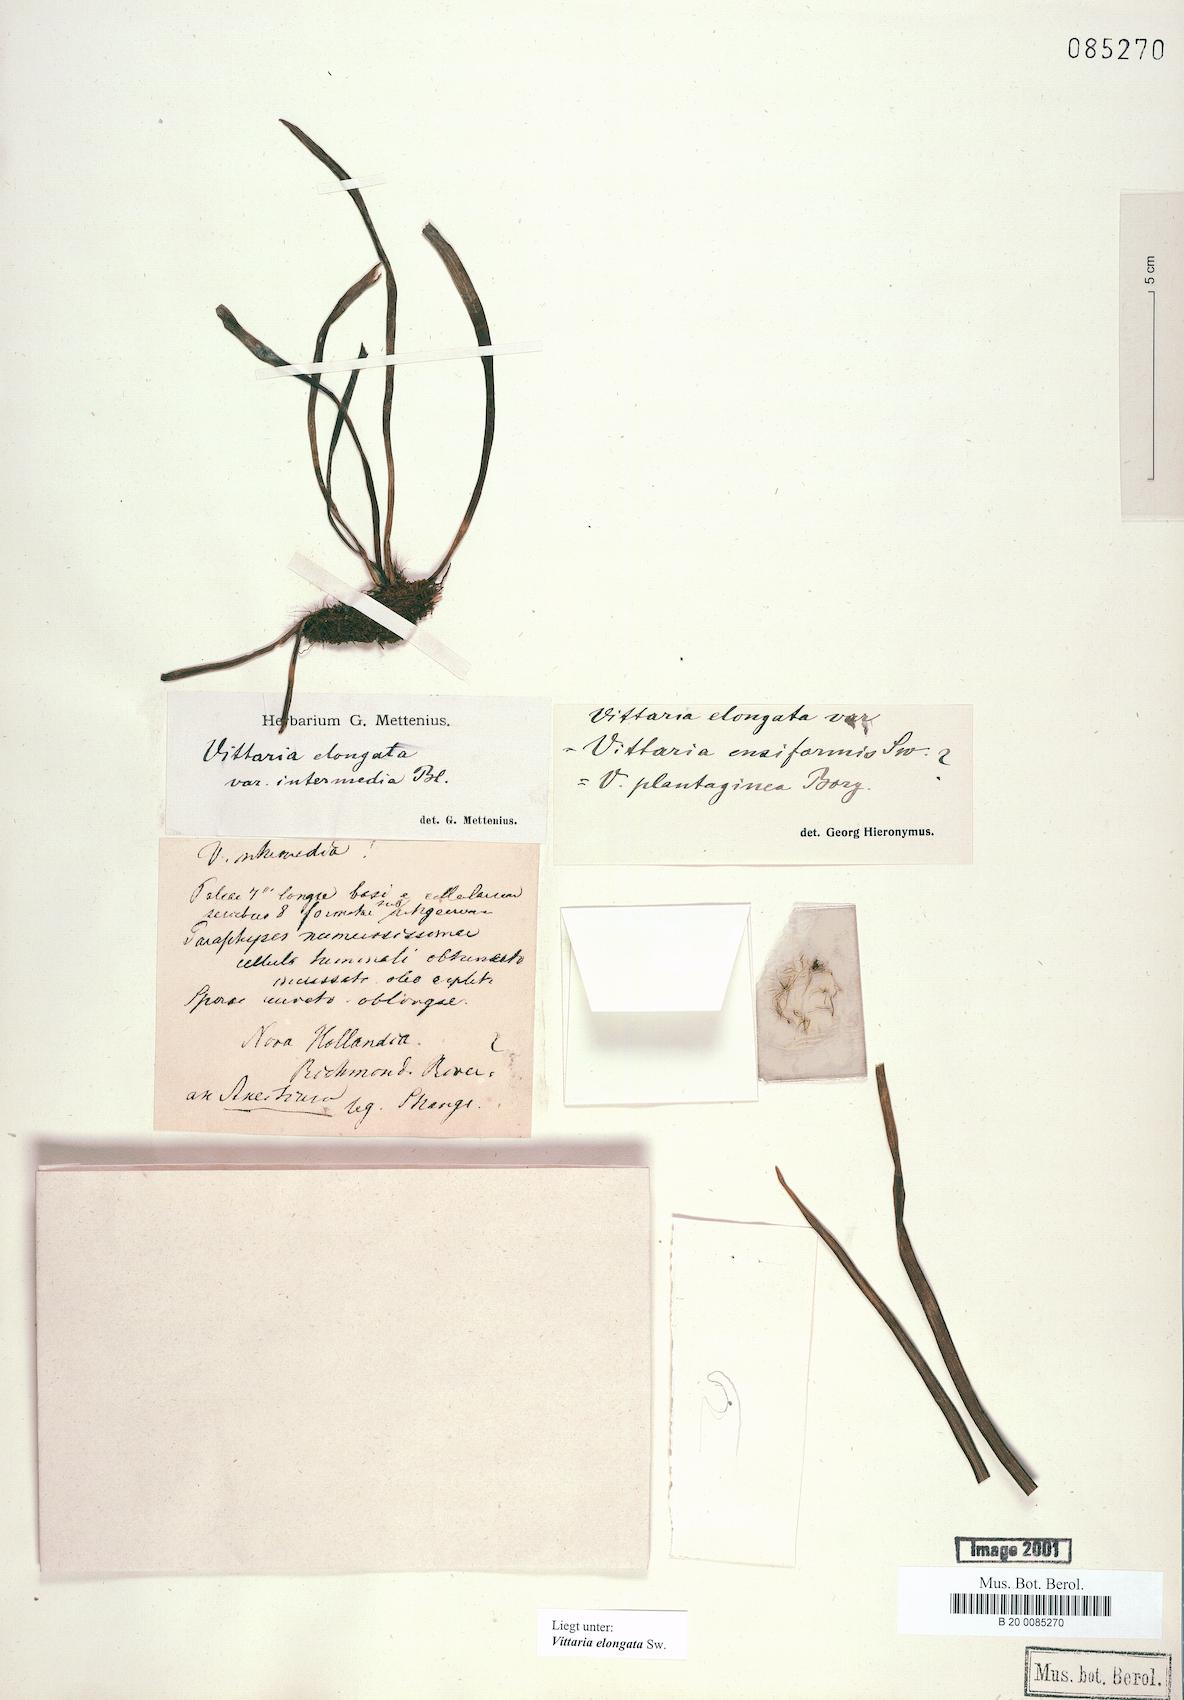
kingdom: Plantae
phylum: Tracheophyta
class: Polypodiopsida
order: Polypodiales
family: Pteridaceae
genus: Haplopteris
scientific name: Haplopteris elongata
